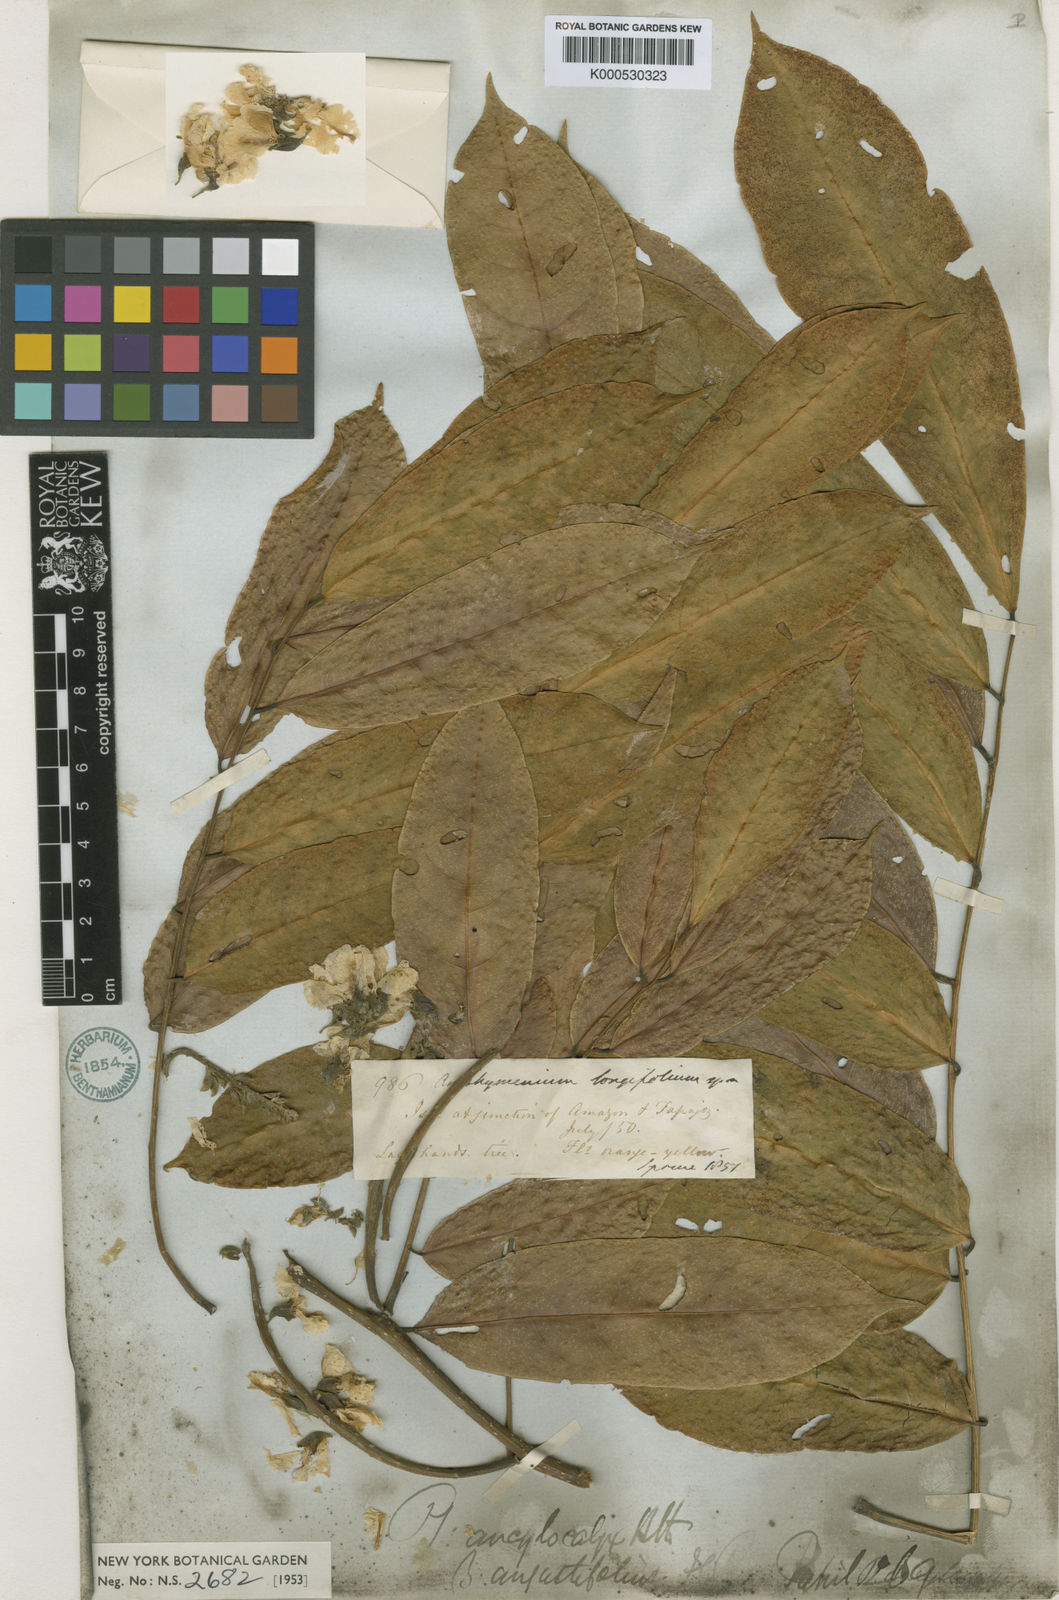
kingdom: Plantae
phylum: Tracheophyta
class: Magnoliopsida
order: Fabales
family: Fabaceae
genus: Pterocarpus
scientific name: Pterocarpus amazonum
